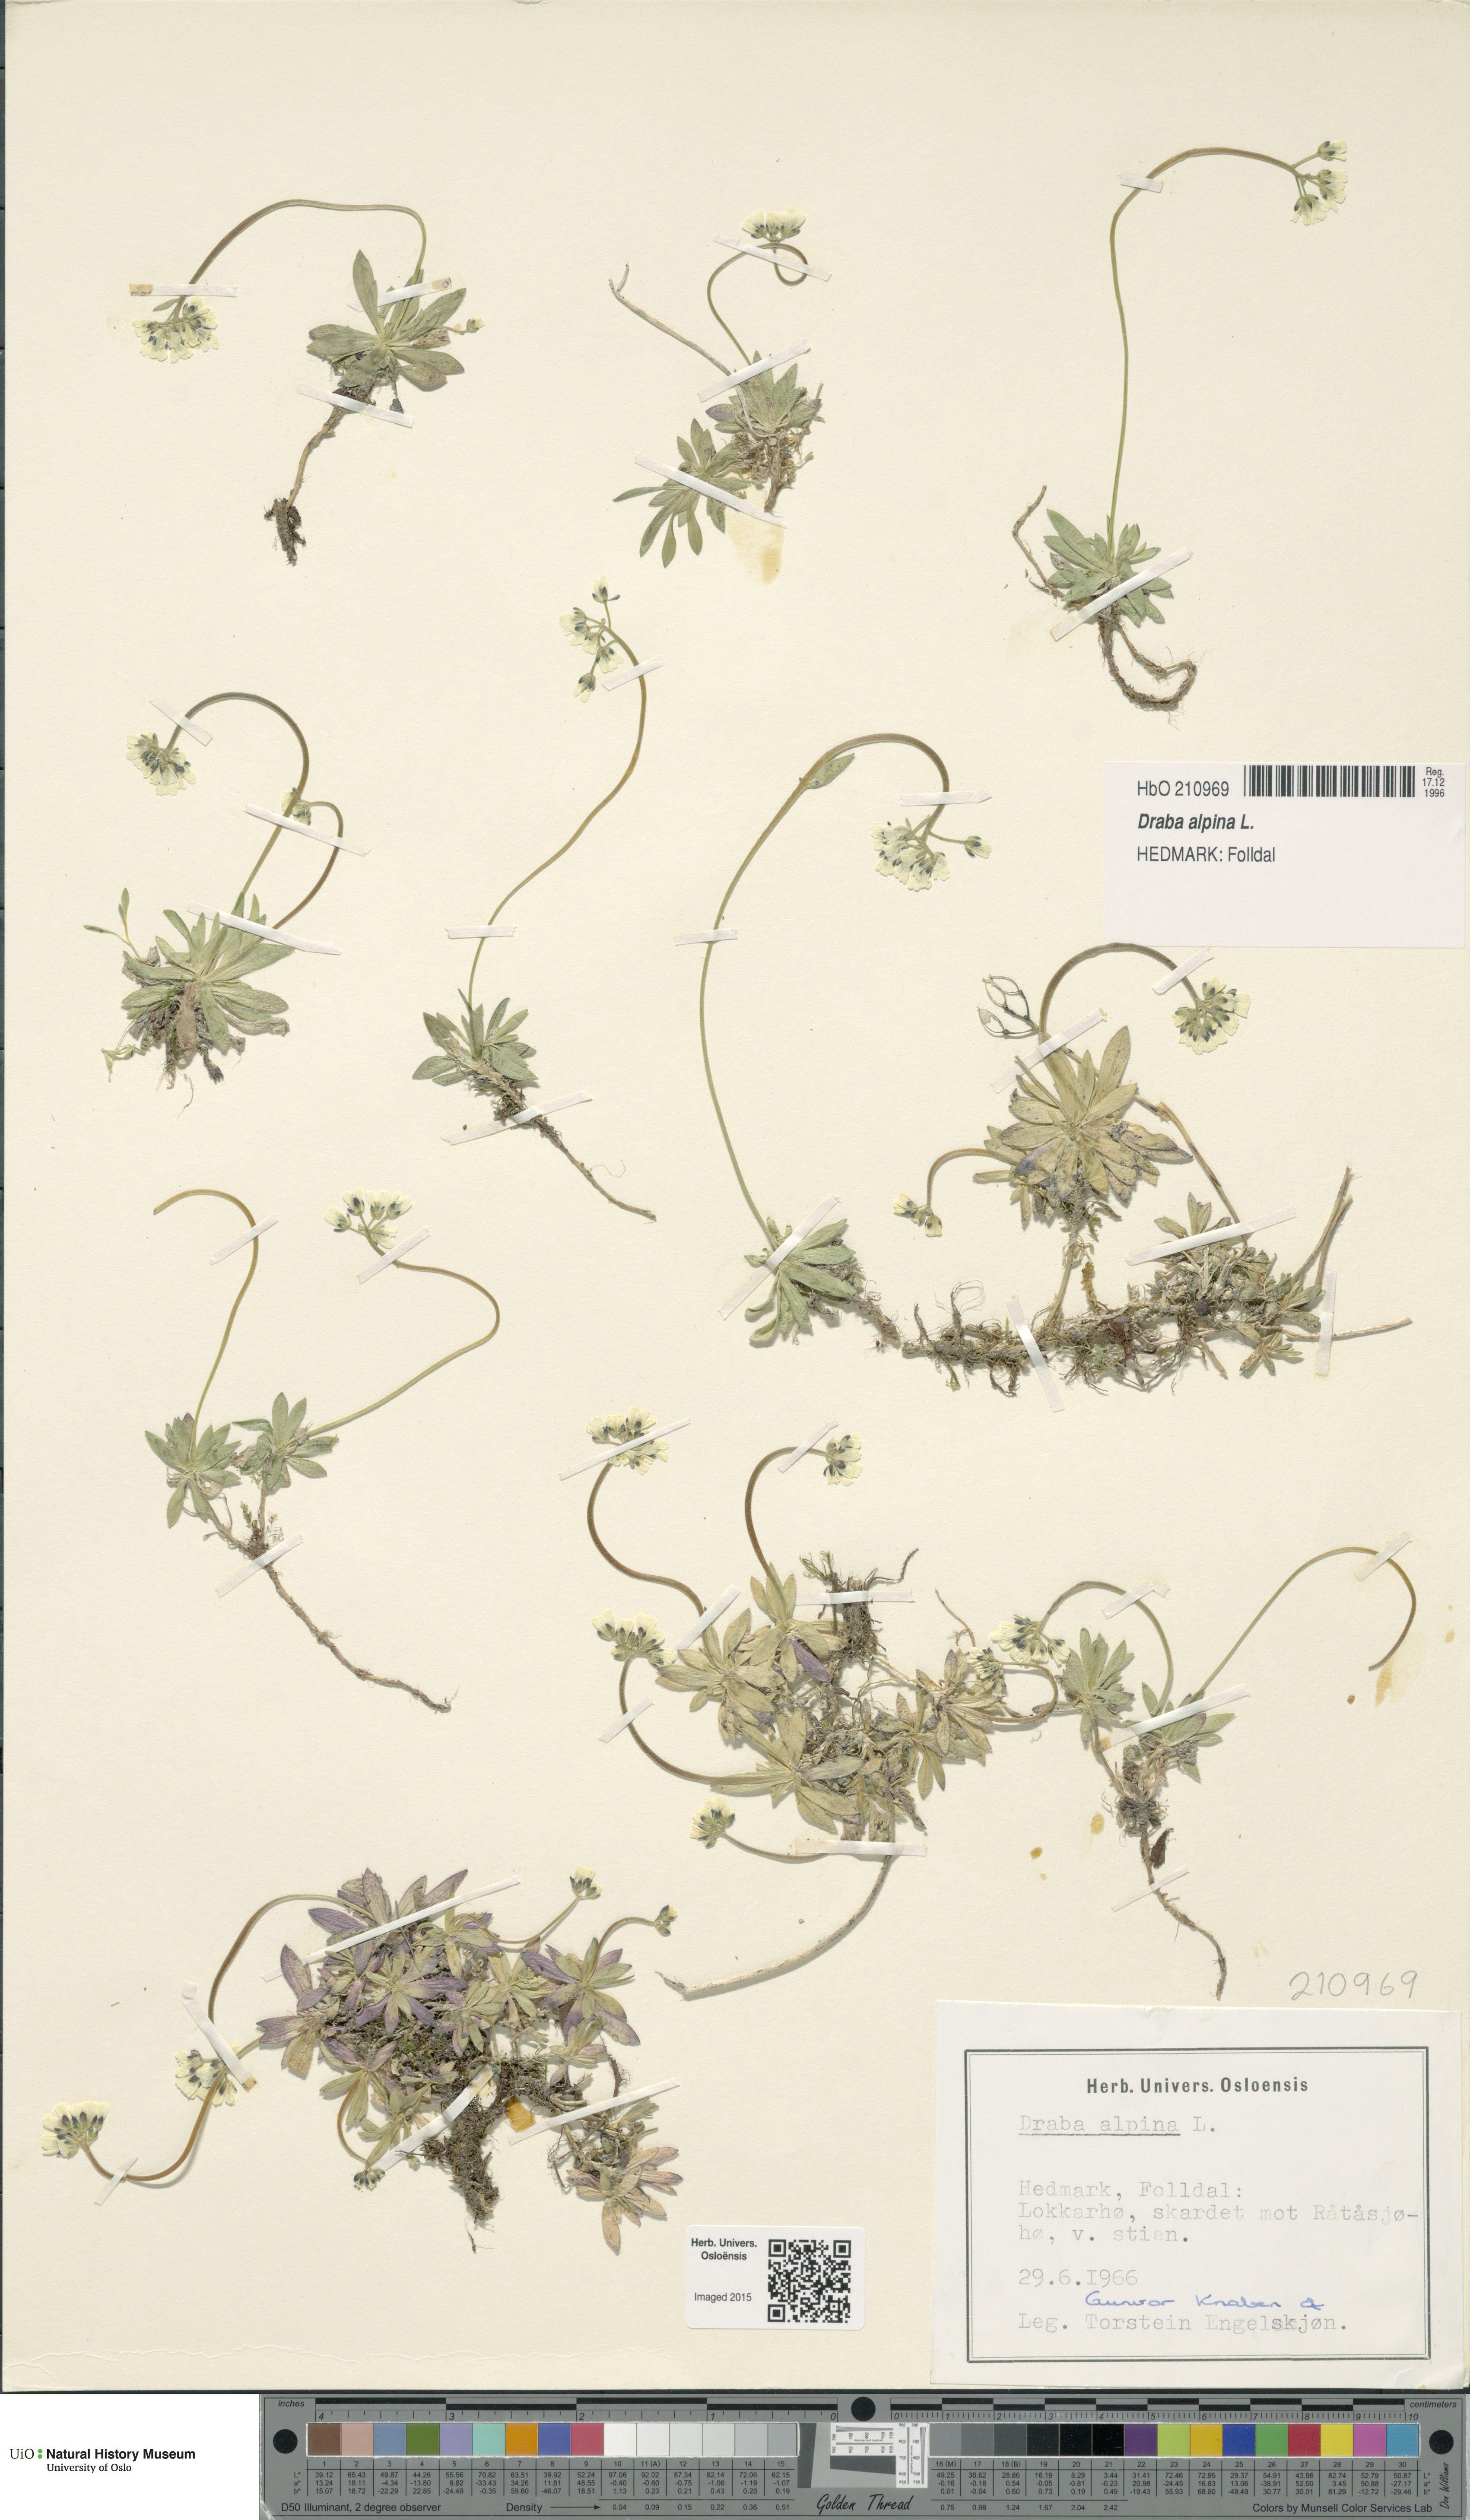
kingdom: Plantae
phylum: Tracheophyta
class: Magnoliopsida
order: Brassicales
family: Brassicaceae
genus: Draba
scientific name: Draba alpina
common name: Alpine draba
